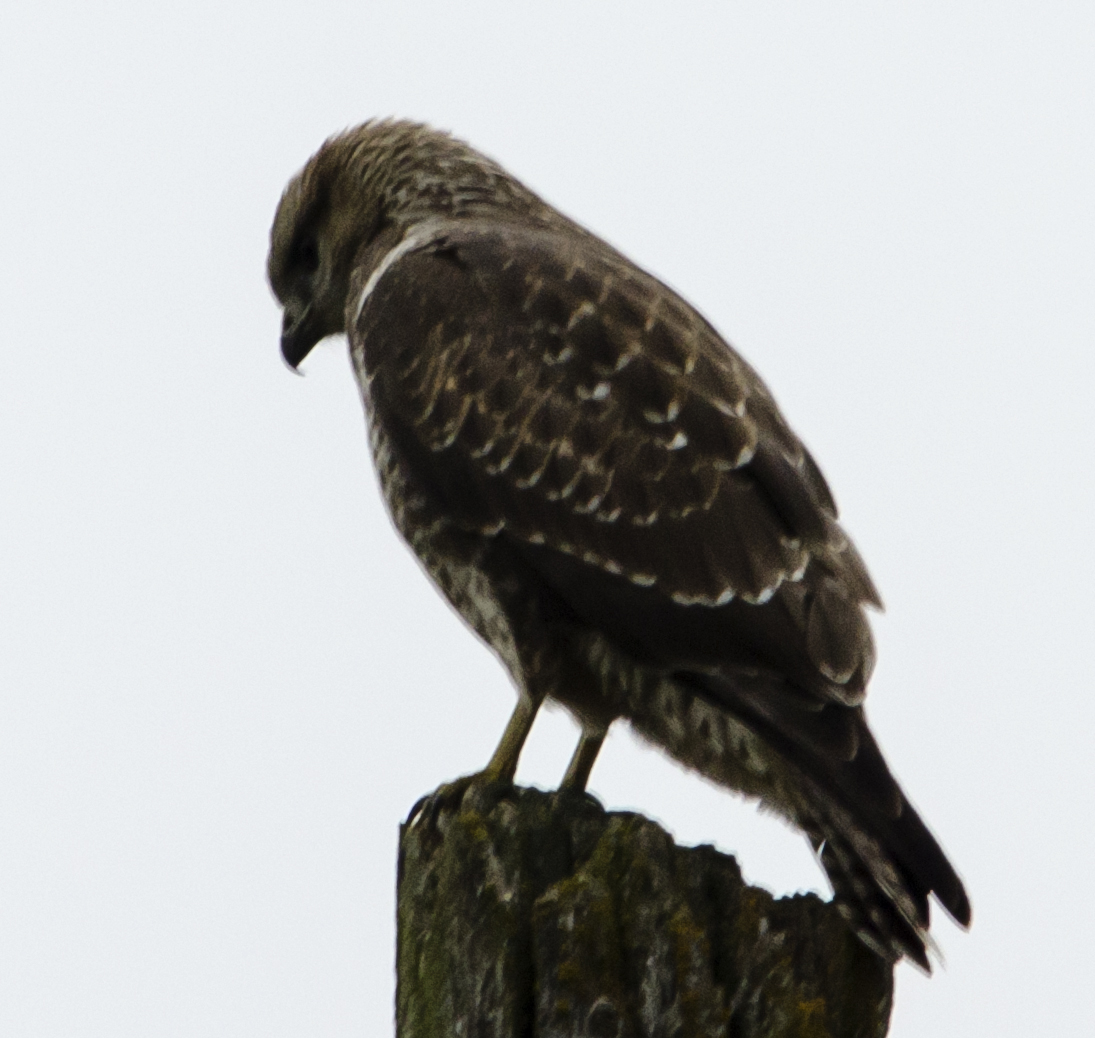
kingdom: Animalia
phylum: Chordata
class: Aves
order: Accipitriformes
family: Accipitridae
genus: Buteo
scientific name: Buteo buteo
